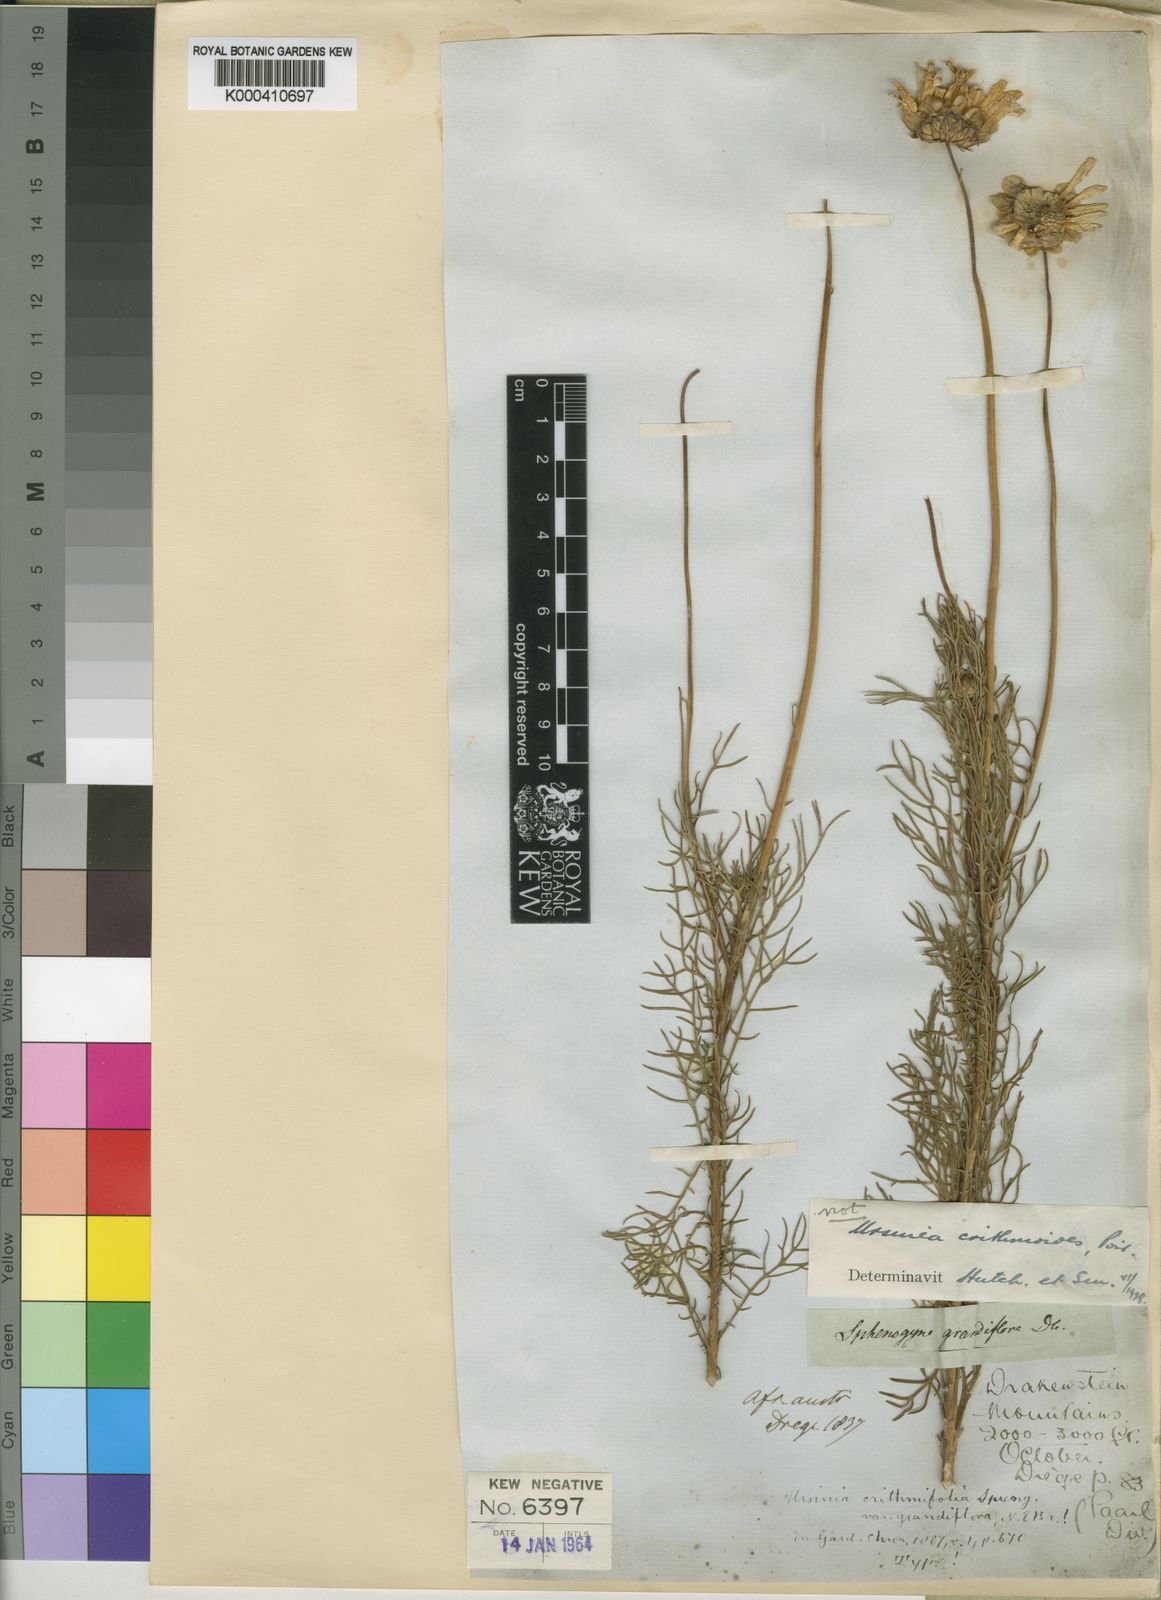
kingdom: Plantae
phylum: Tracheophyta
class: Magnoliopsida
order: Asterales
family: Asteraceae
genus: Ursinia
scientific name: Ursinia paleacea
